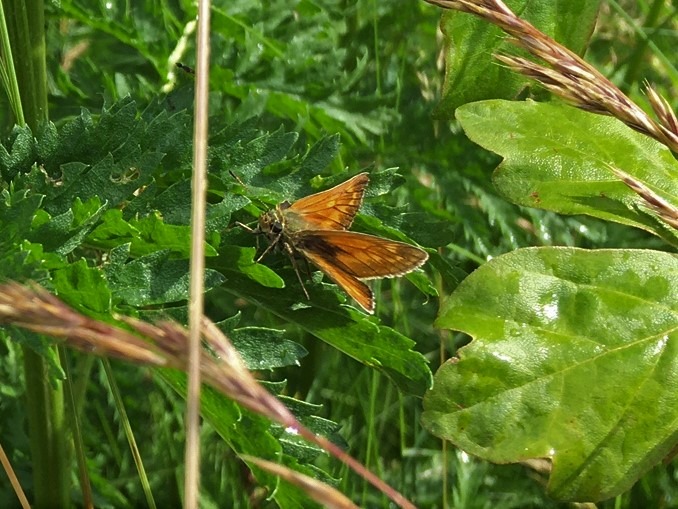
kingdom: Animalia
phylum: Arthropoda
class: Insecta
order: Lepidoptera
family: Hesperiidae
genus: Ochlodes
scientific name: Ochlodes venata
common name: Stor bredpande
